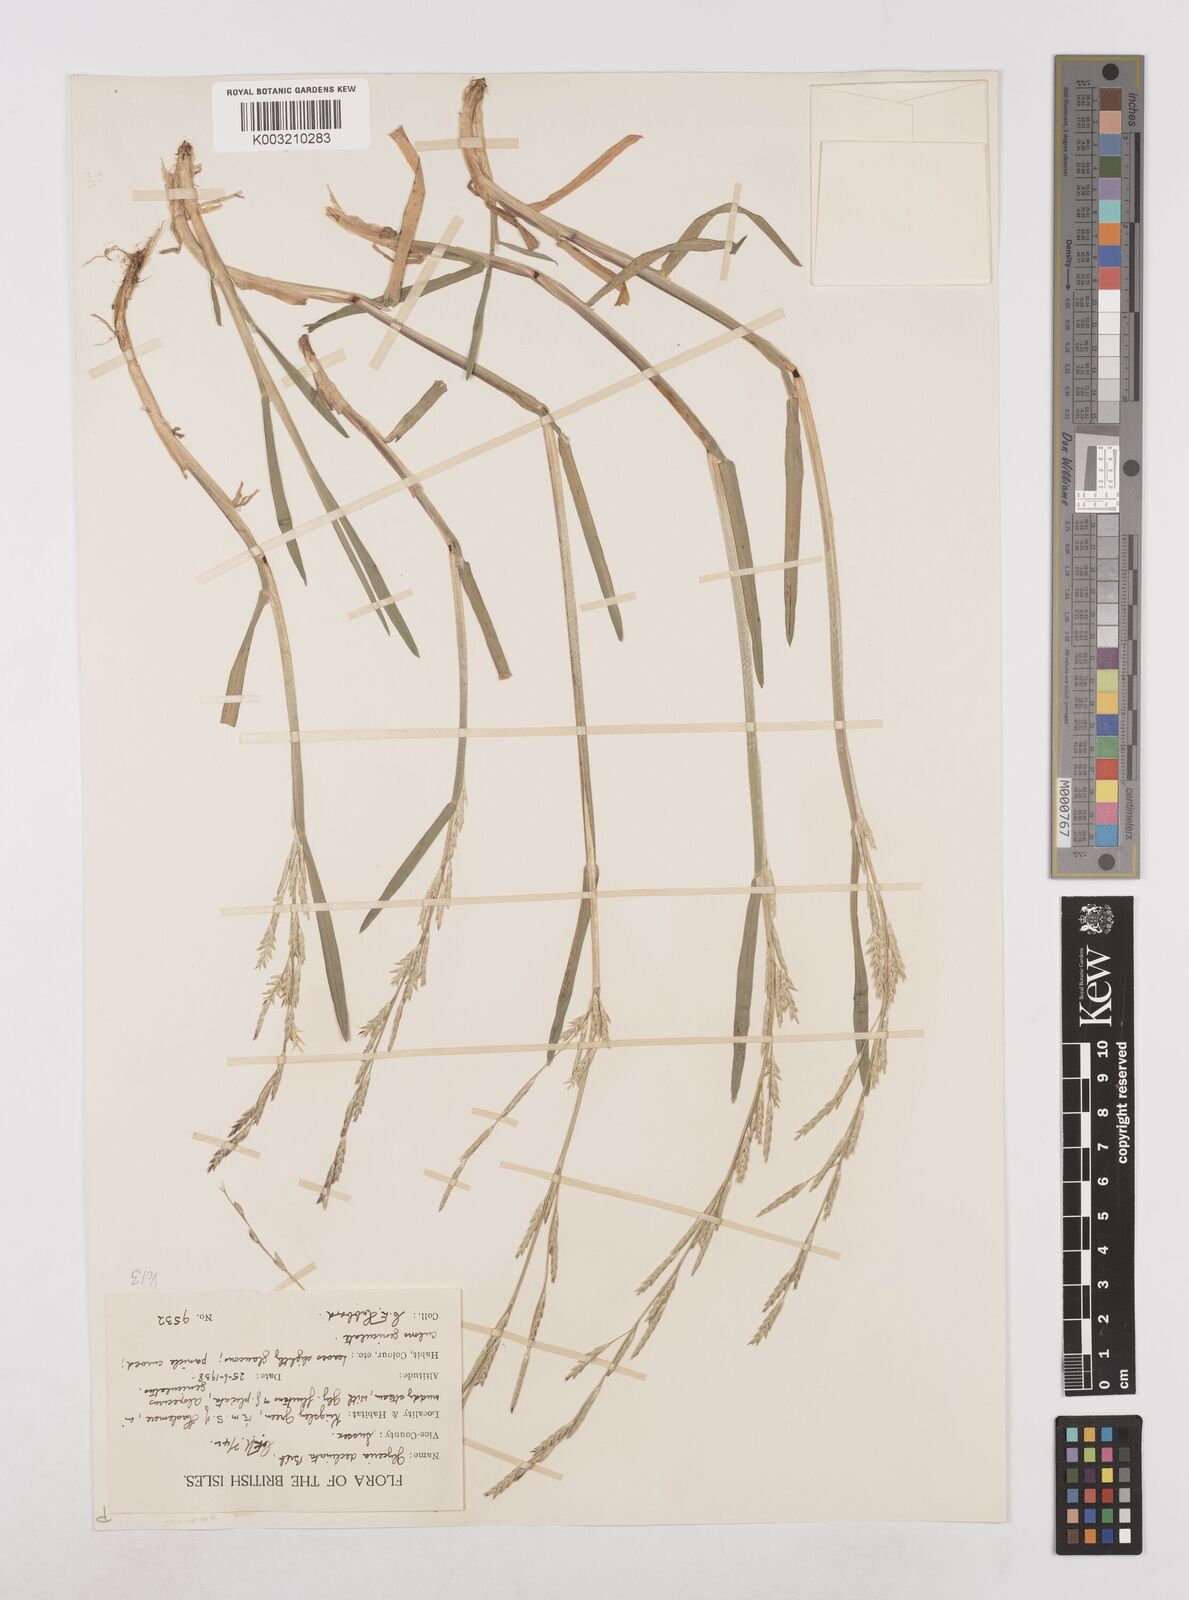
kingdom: Plantae
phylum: Tracheophyta
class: Liliopsida
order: Poales
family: Poaceae
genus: Glyceria
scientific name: Glyceria declinata
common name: Small sweet-grass
